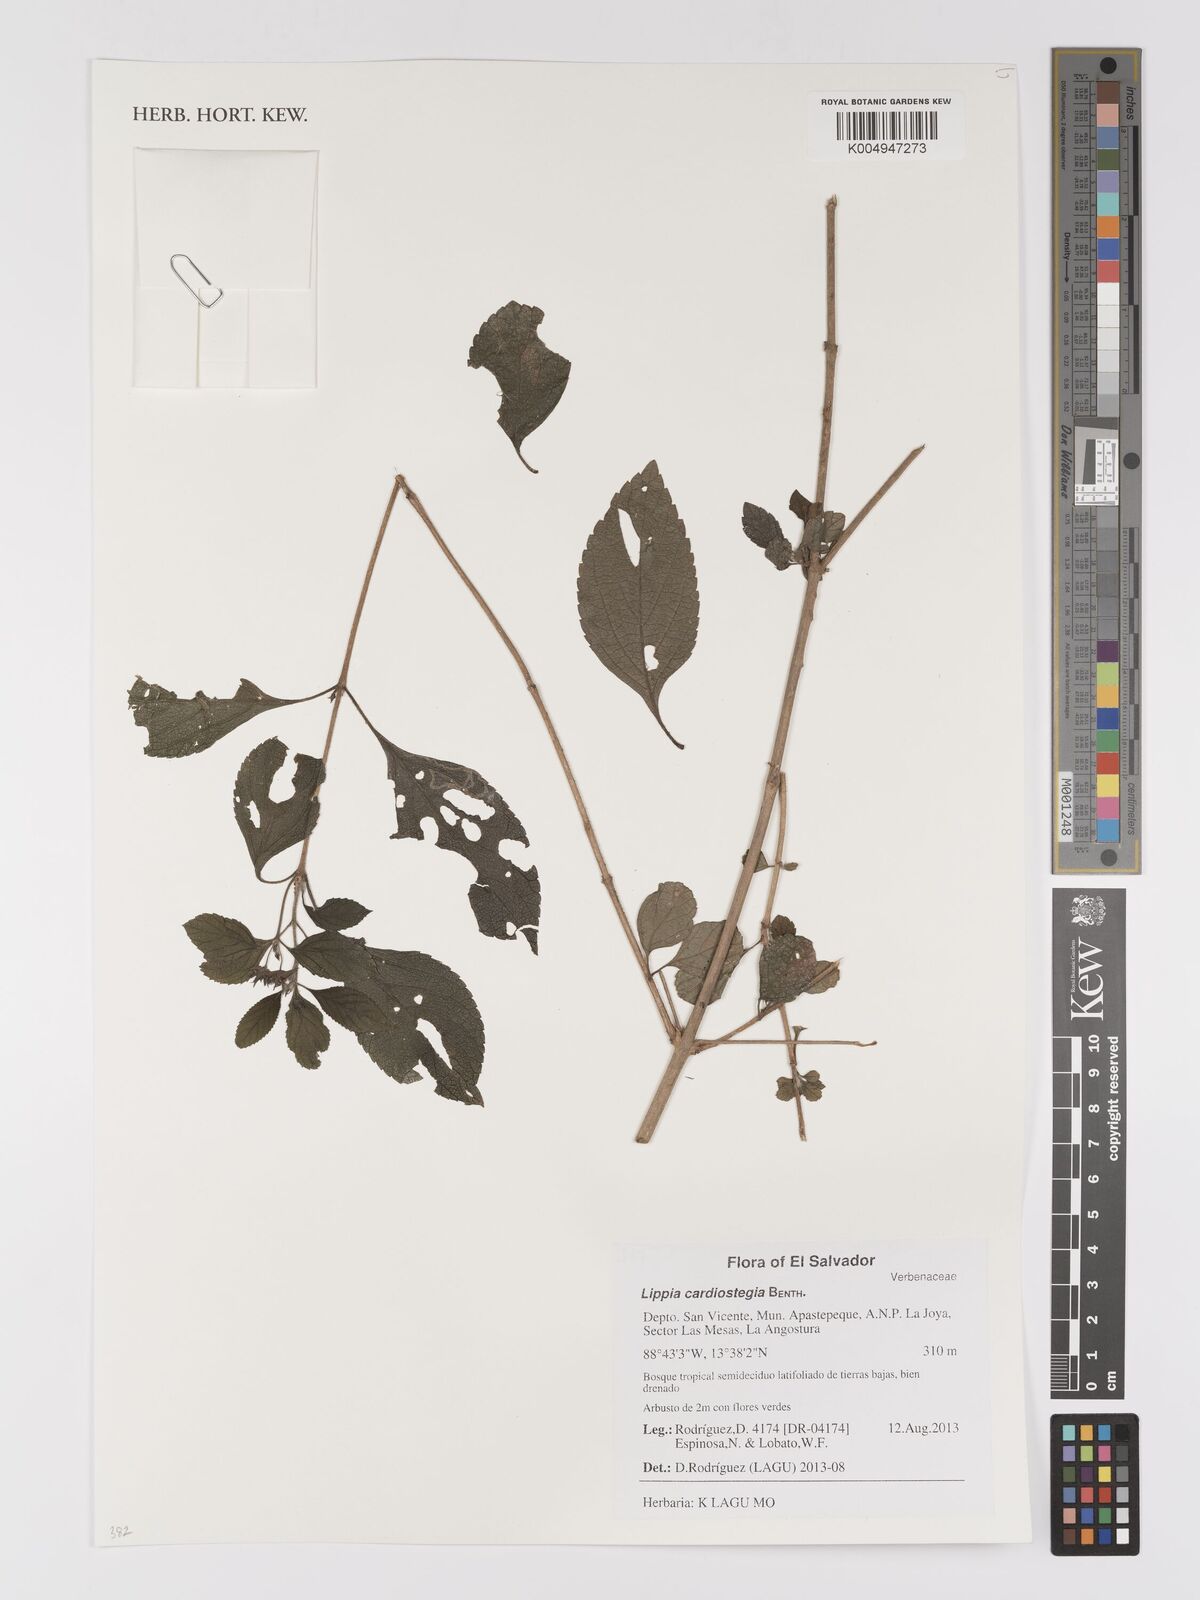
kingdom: Plantae
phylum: Tracheophyta
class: Magnoliopsida
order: Lamiales
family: Verbenaceae
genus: Lippia
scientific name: Lippia cardiostegia
